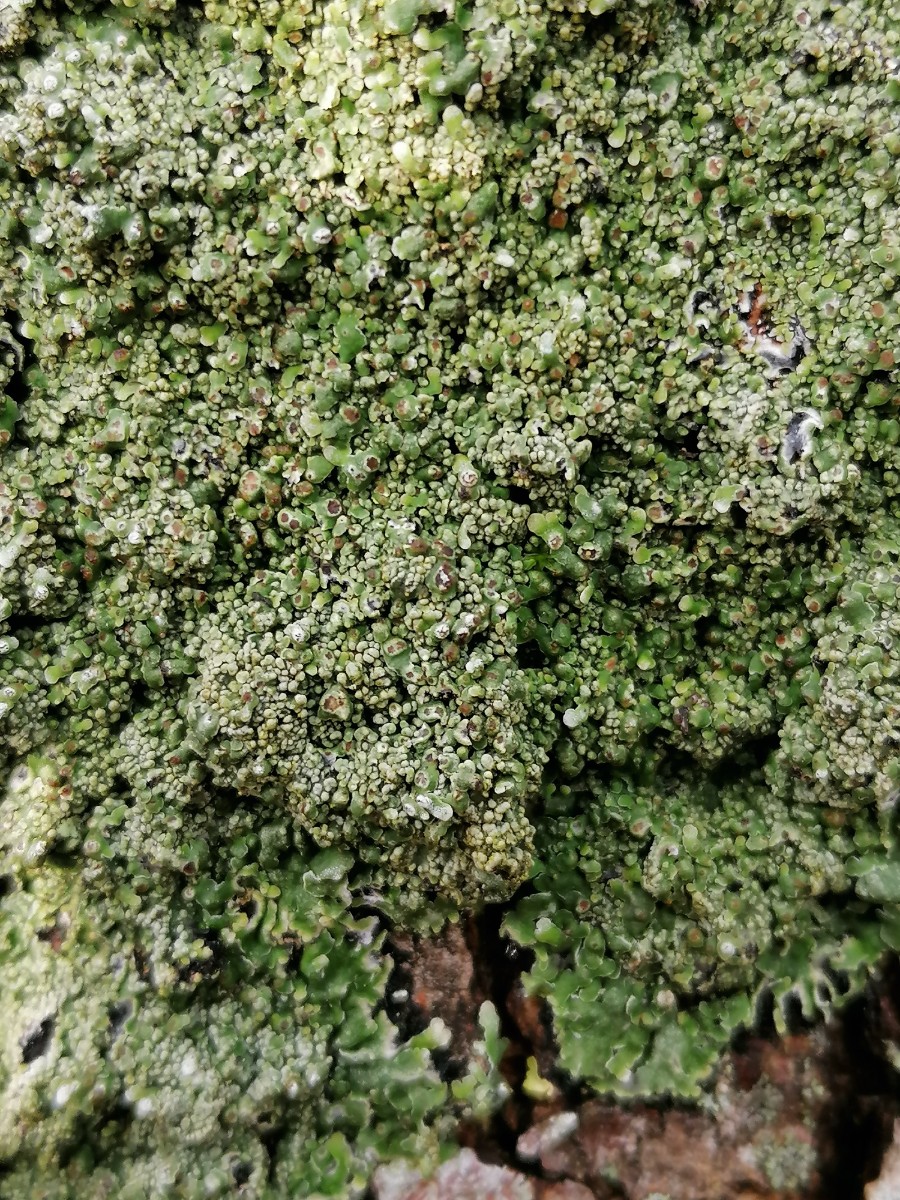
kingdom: Fungi
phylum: Ascomycota
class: Lecanoromycetes
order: Caliciales
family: Physciaceae
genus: Physconia
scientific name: Physconia distorta
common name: pudret dugrosetlav
